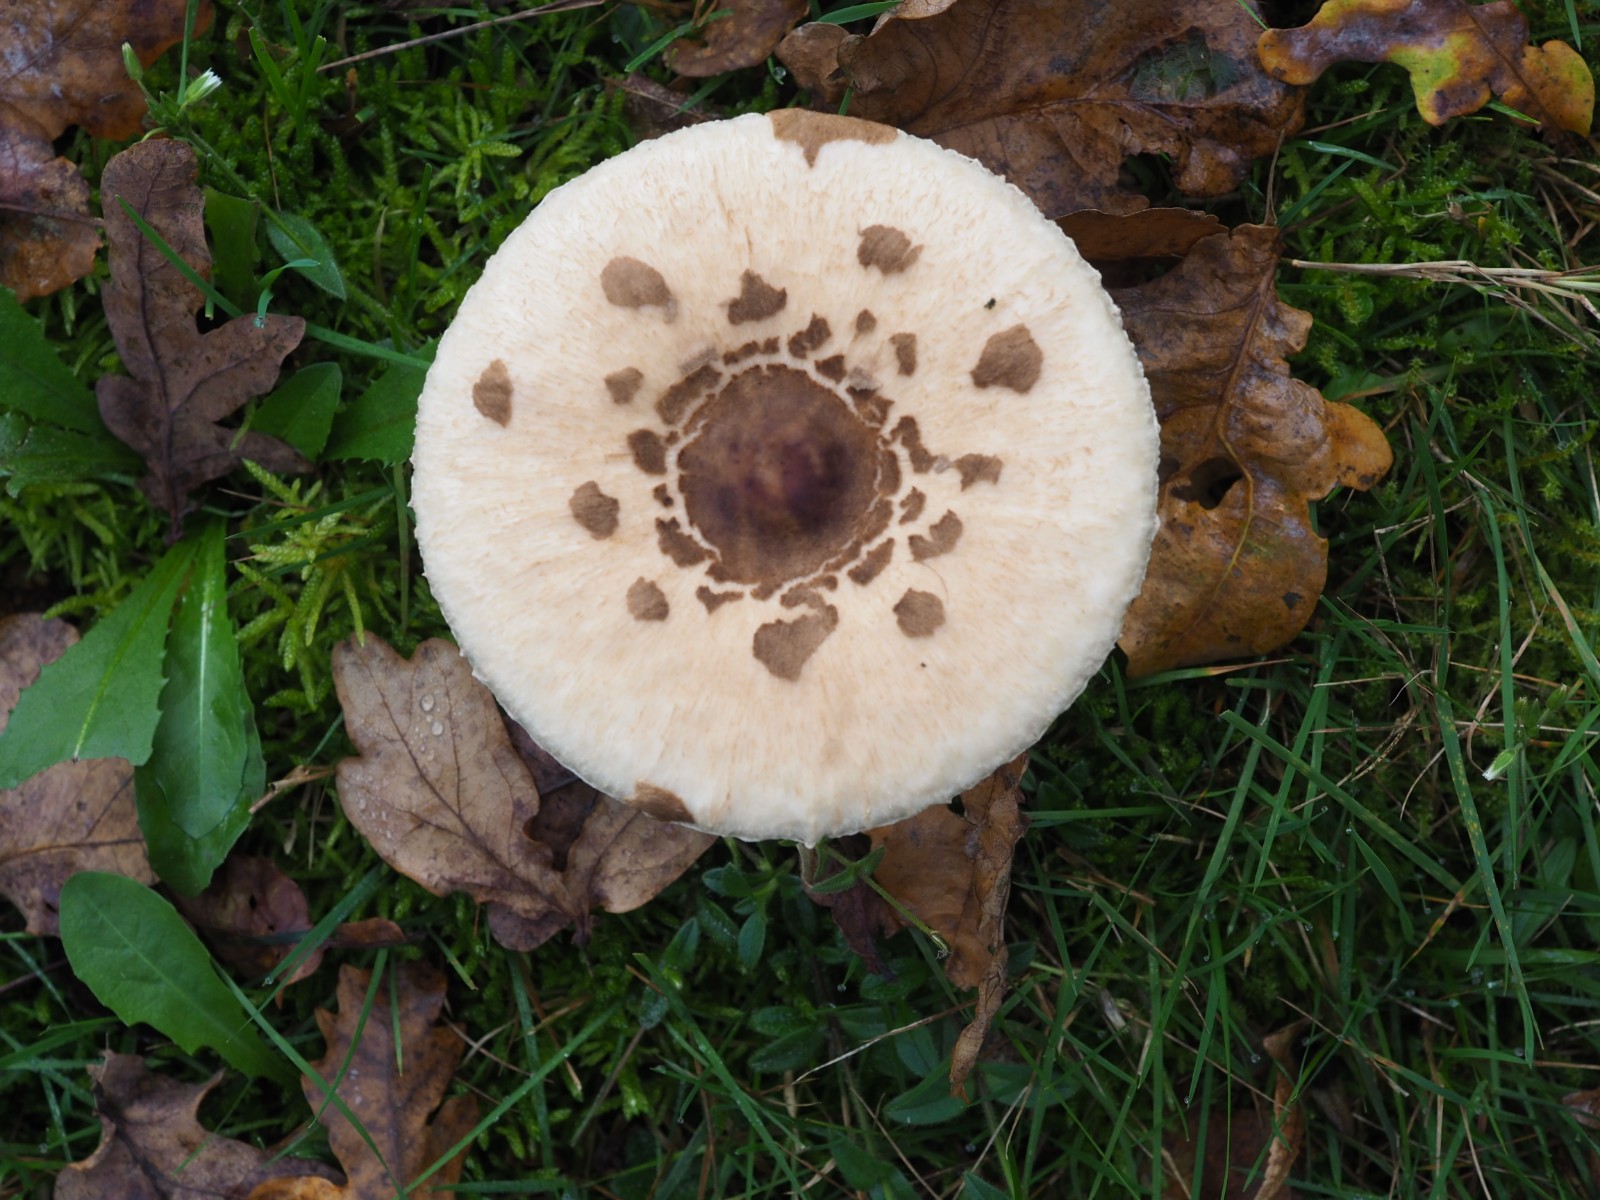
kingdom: Fungi
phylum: Basidiomycota
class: Agaricomycetes
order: Agaricales
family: Agaricaceae
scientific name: Agaricaceae
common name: champignonfamilien
